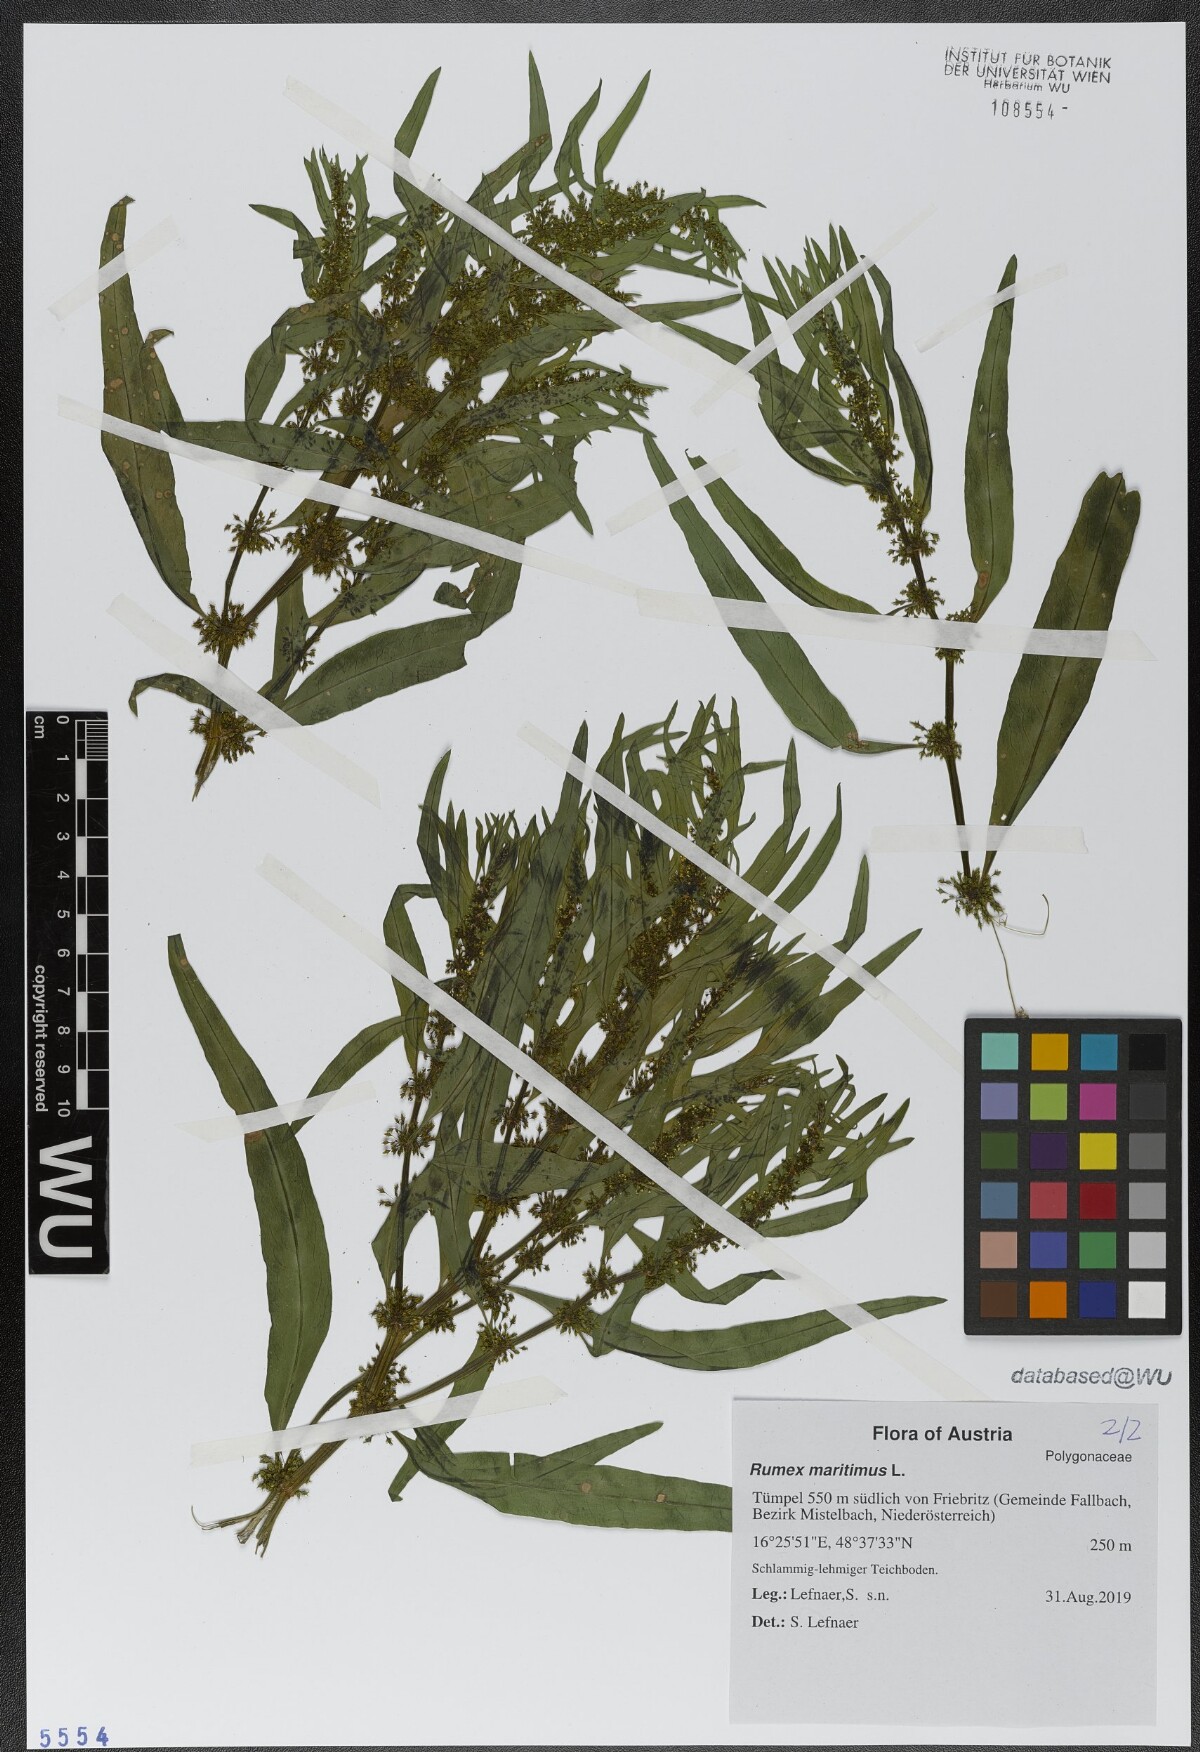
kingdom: Plantae
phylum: Tracheophyta
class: Magnoliopsida
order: Caryophyllales
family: Polygonaceae
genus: Rumex
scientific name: Rumex maritimus
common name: Golden dock
